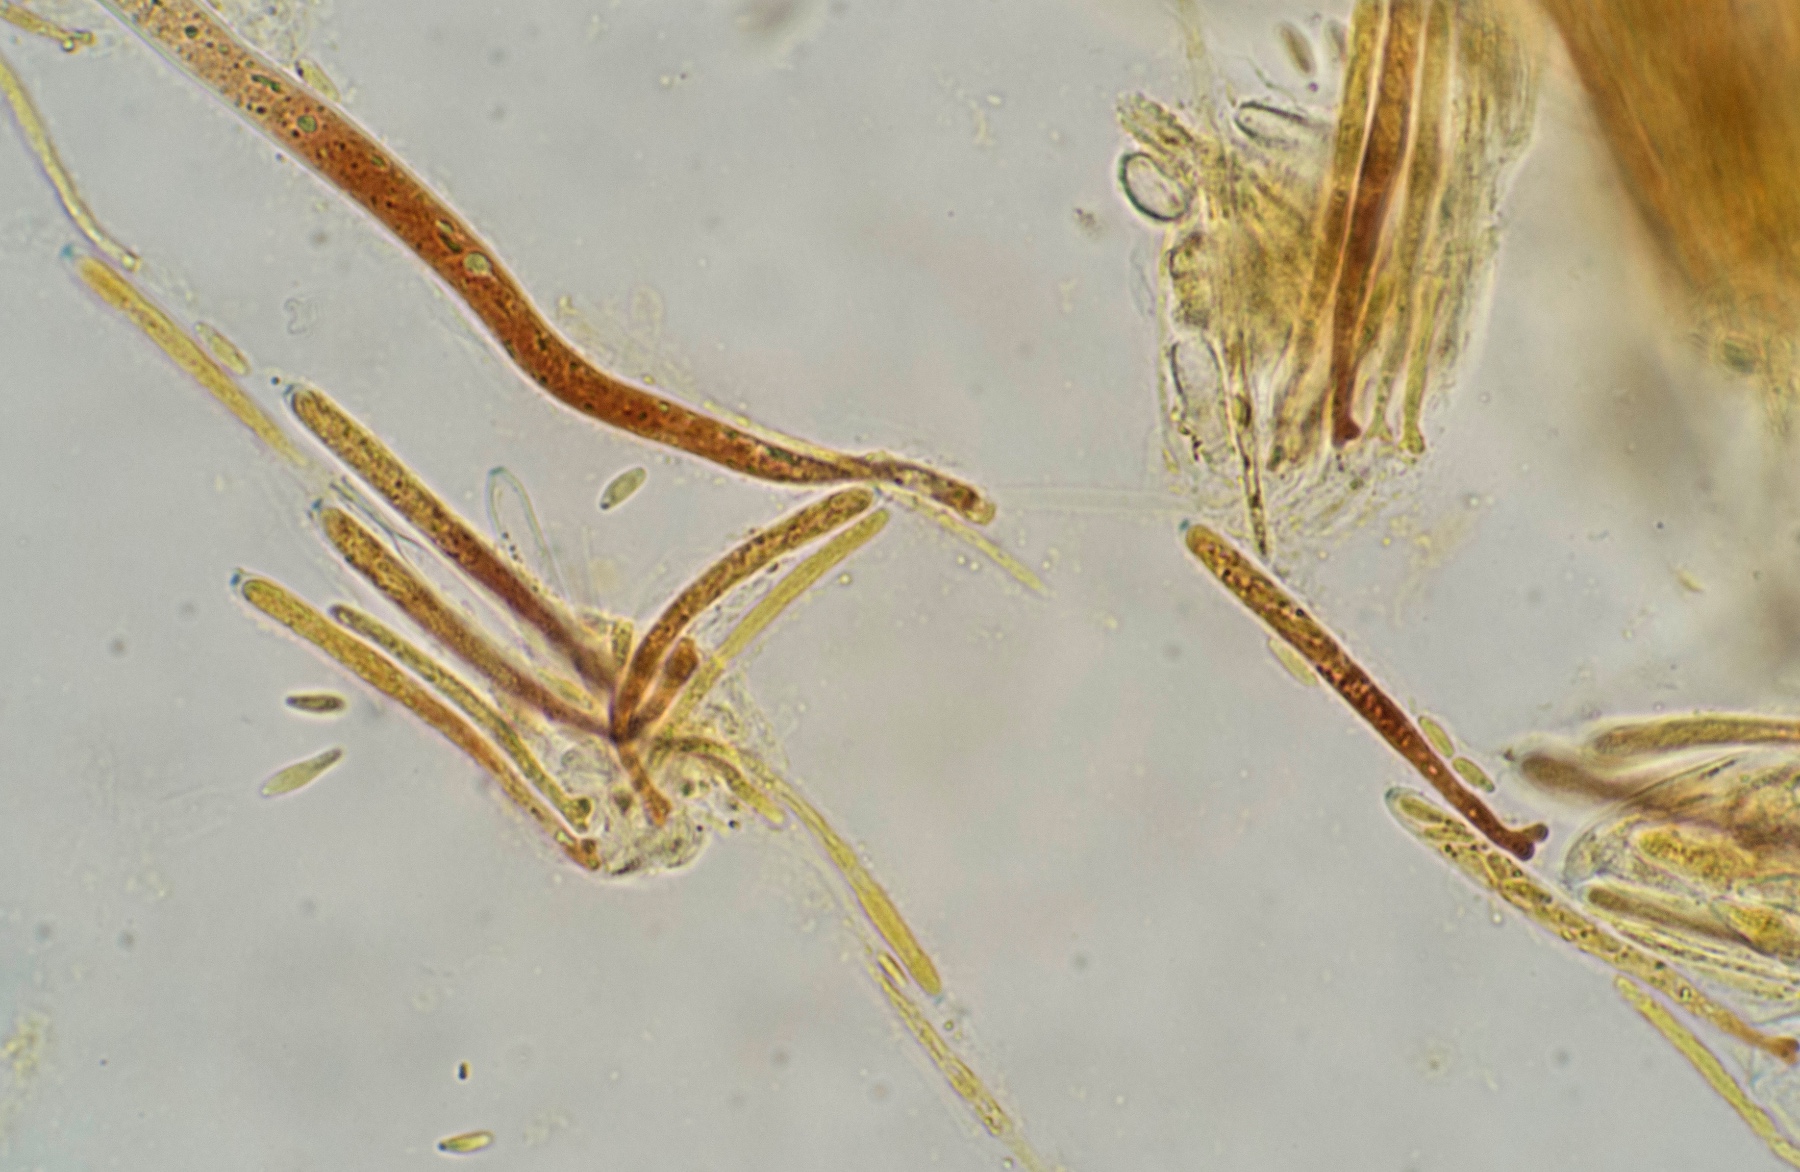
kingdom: Fungi
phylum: Ascomycota
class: Leotiomycetes
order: Helotiales
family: Lachnaceae
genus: Lachnum
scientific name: Lachnum impudicum
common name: vinter-frynseskive
